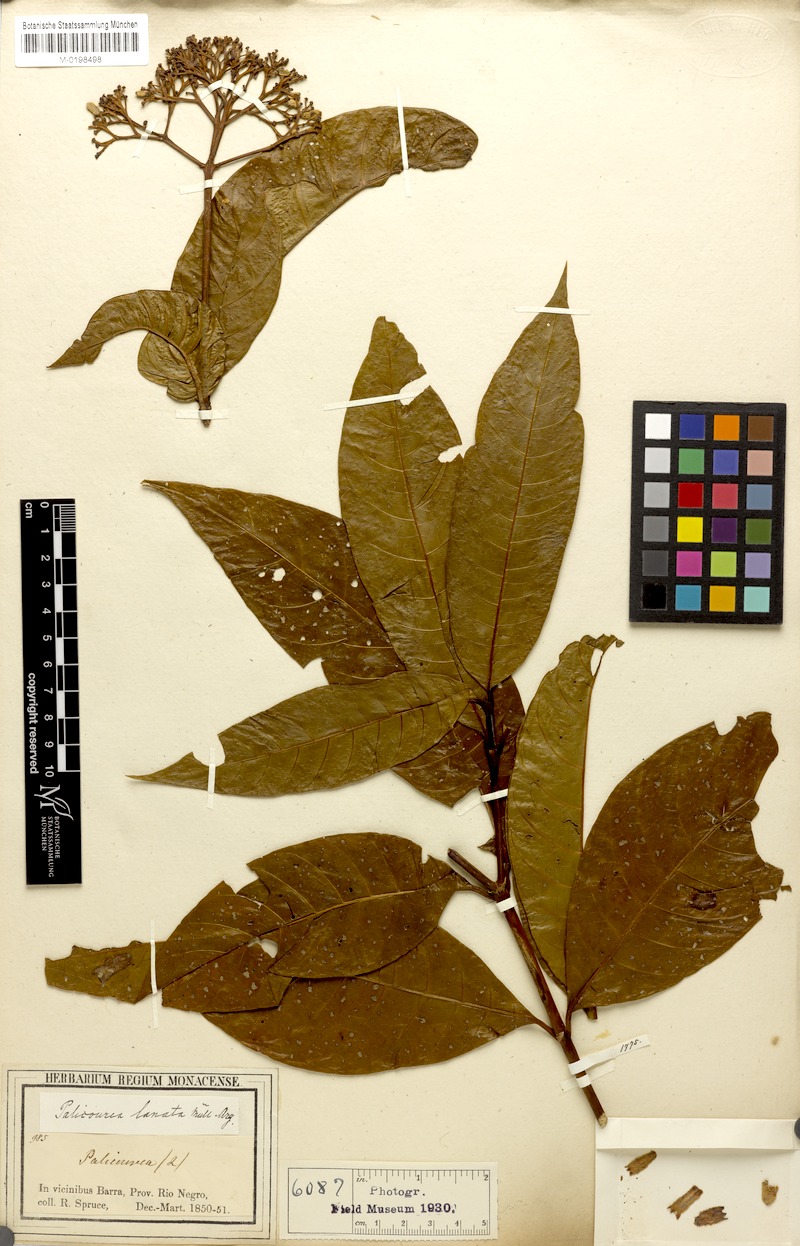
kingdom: Plantae
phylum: Tracheophyta
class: Magnoliopsida
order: Gentianales
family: Rubiaceae
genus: Palicourea
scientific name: Palicourea nitidella
